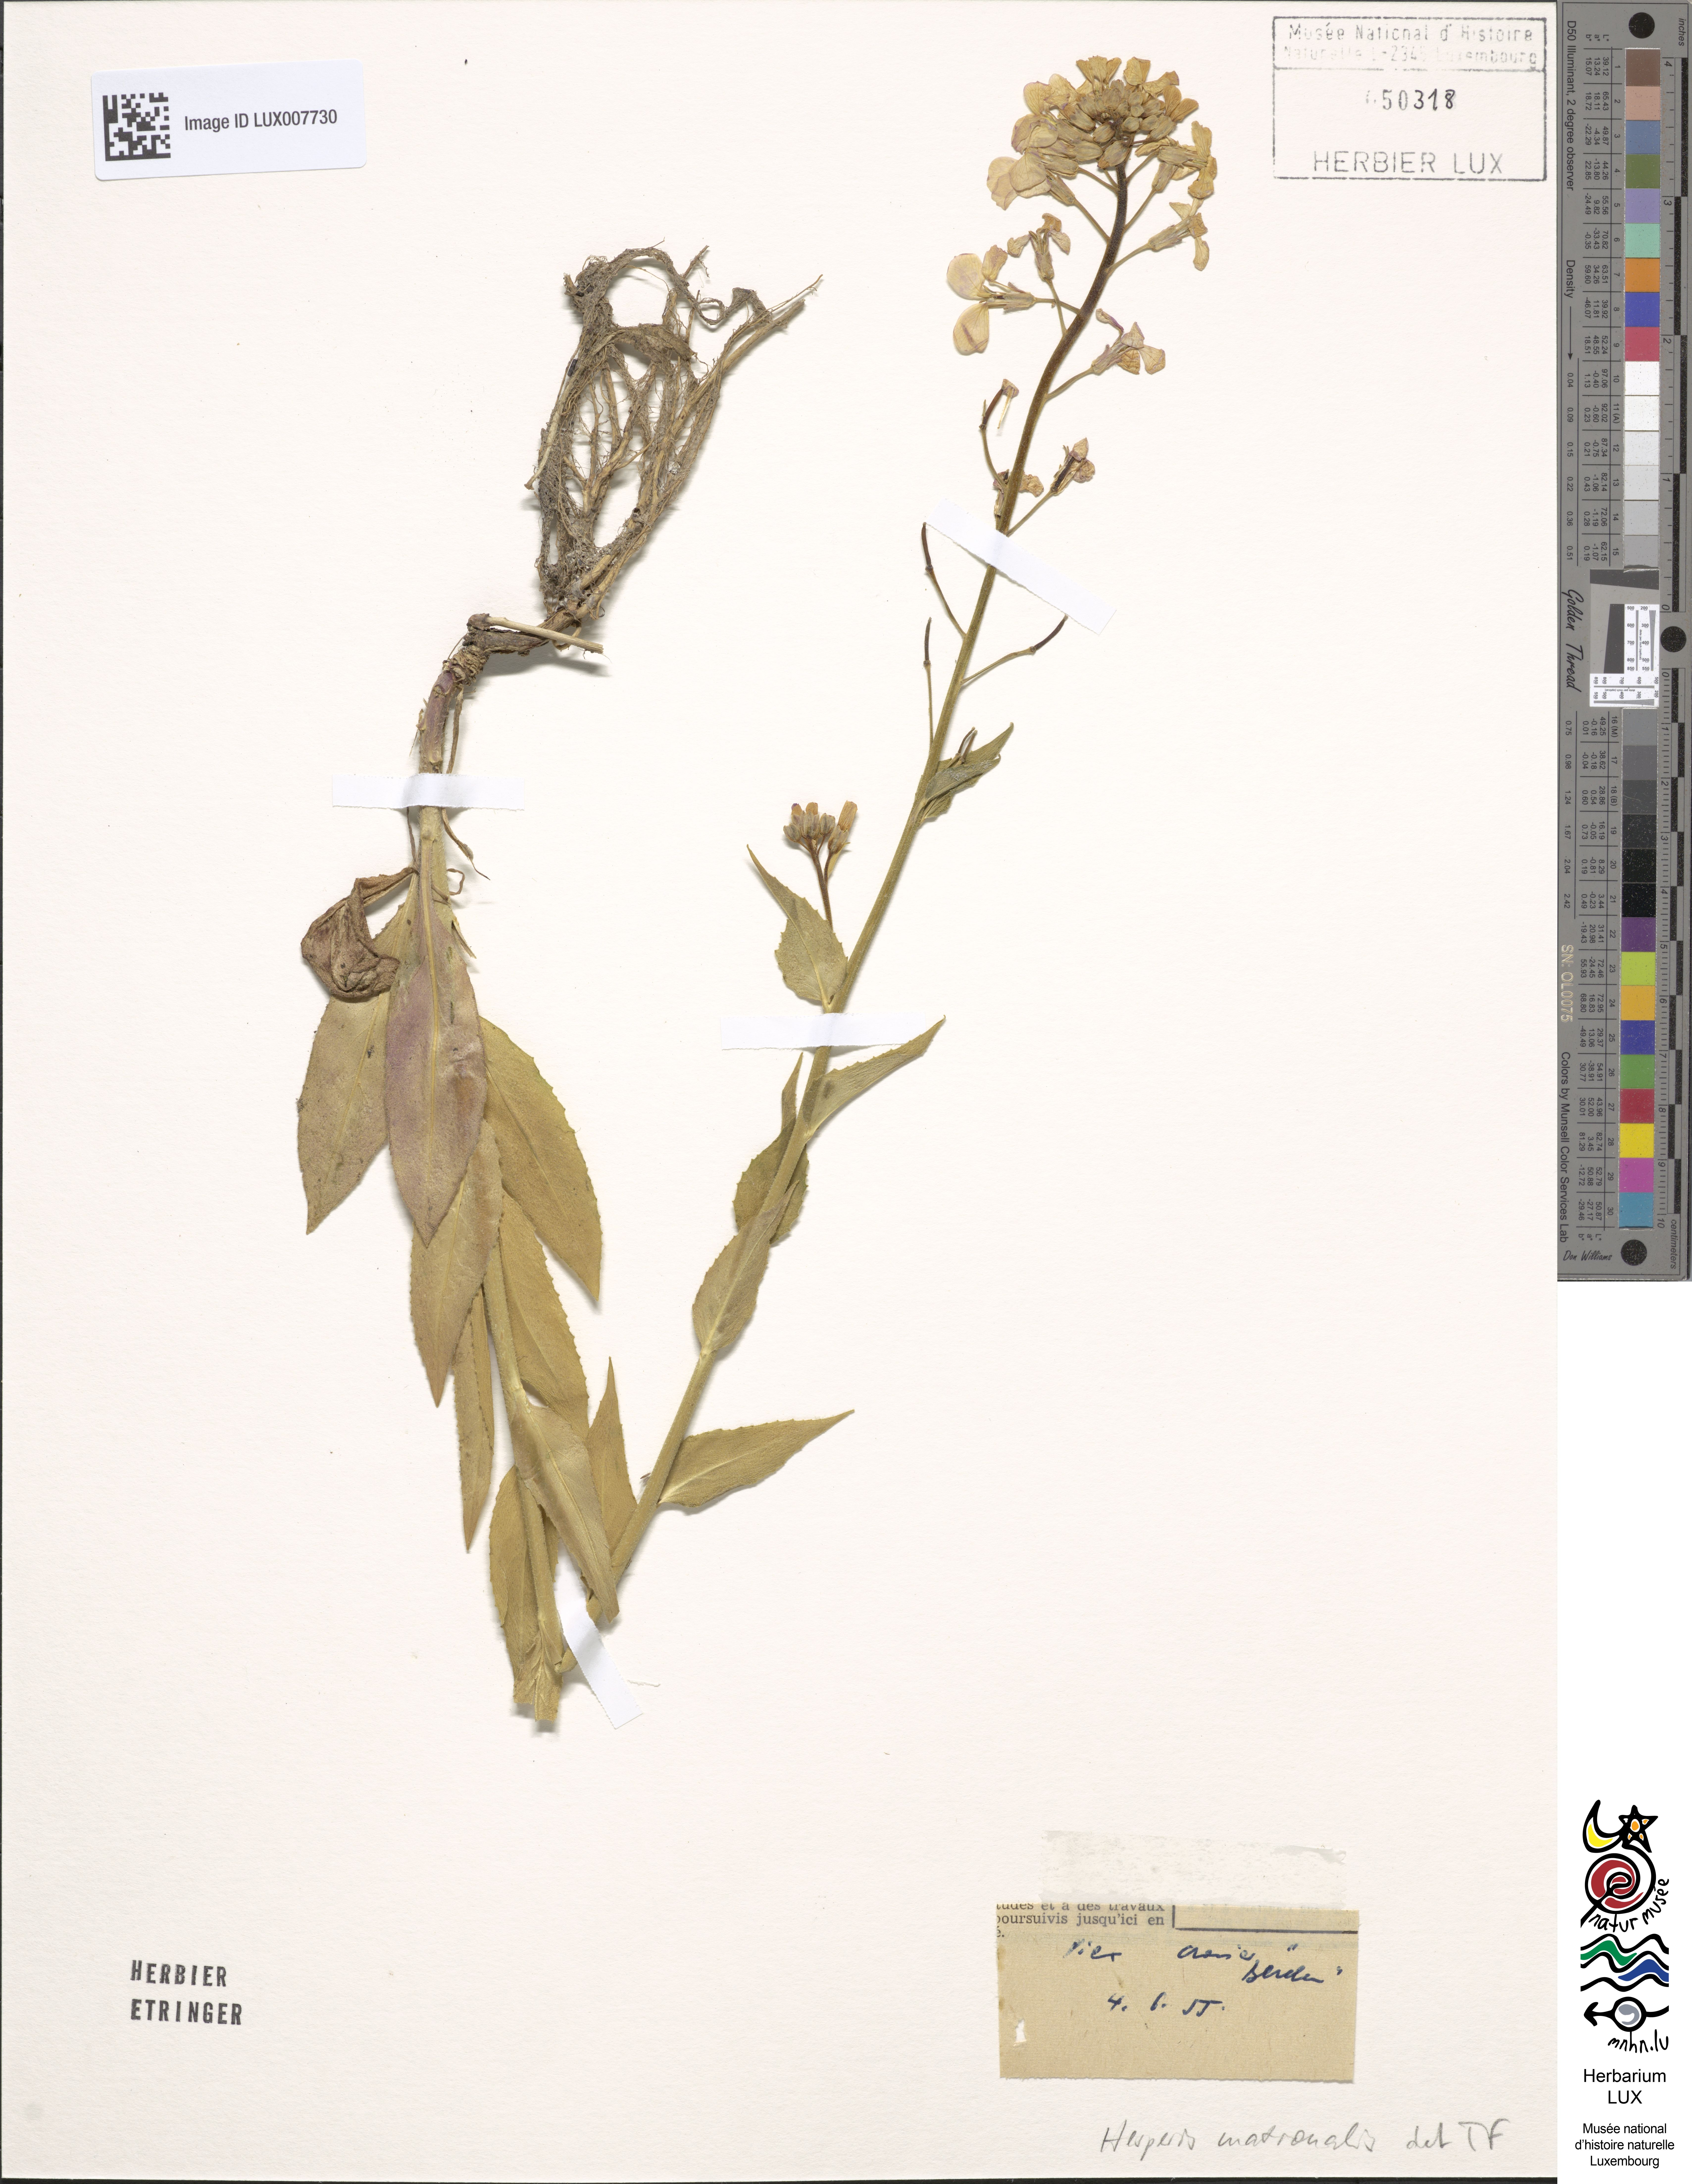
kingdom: Plantae
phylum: Tracheophyta
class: Magnoliopsida
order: Brassicales
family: Brassicaceae
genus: Hesperis
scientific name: Hesperis matronalis
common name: Dame's-violet
